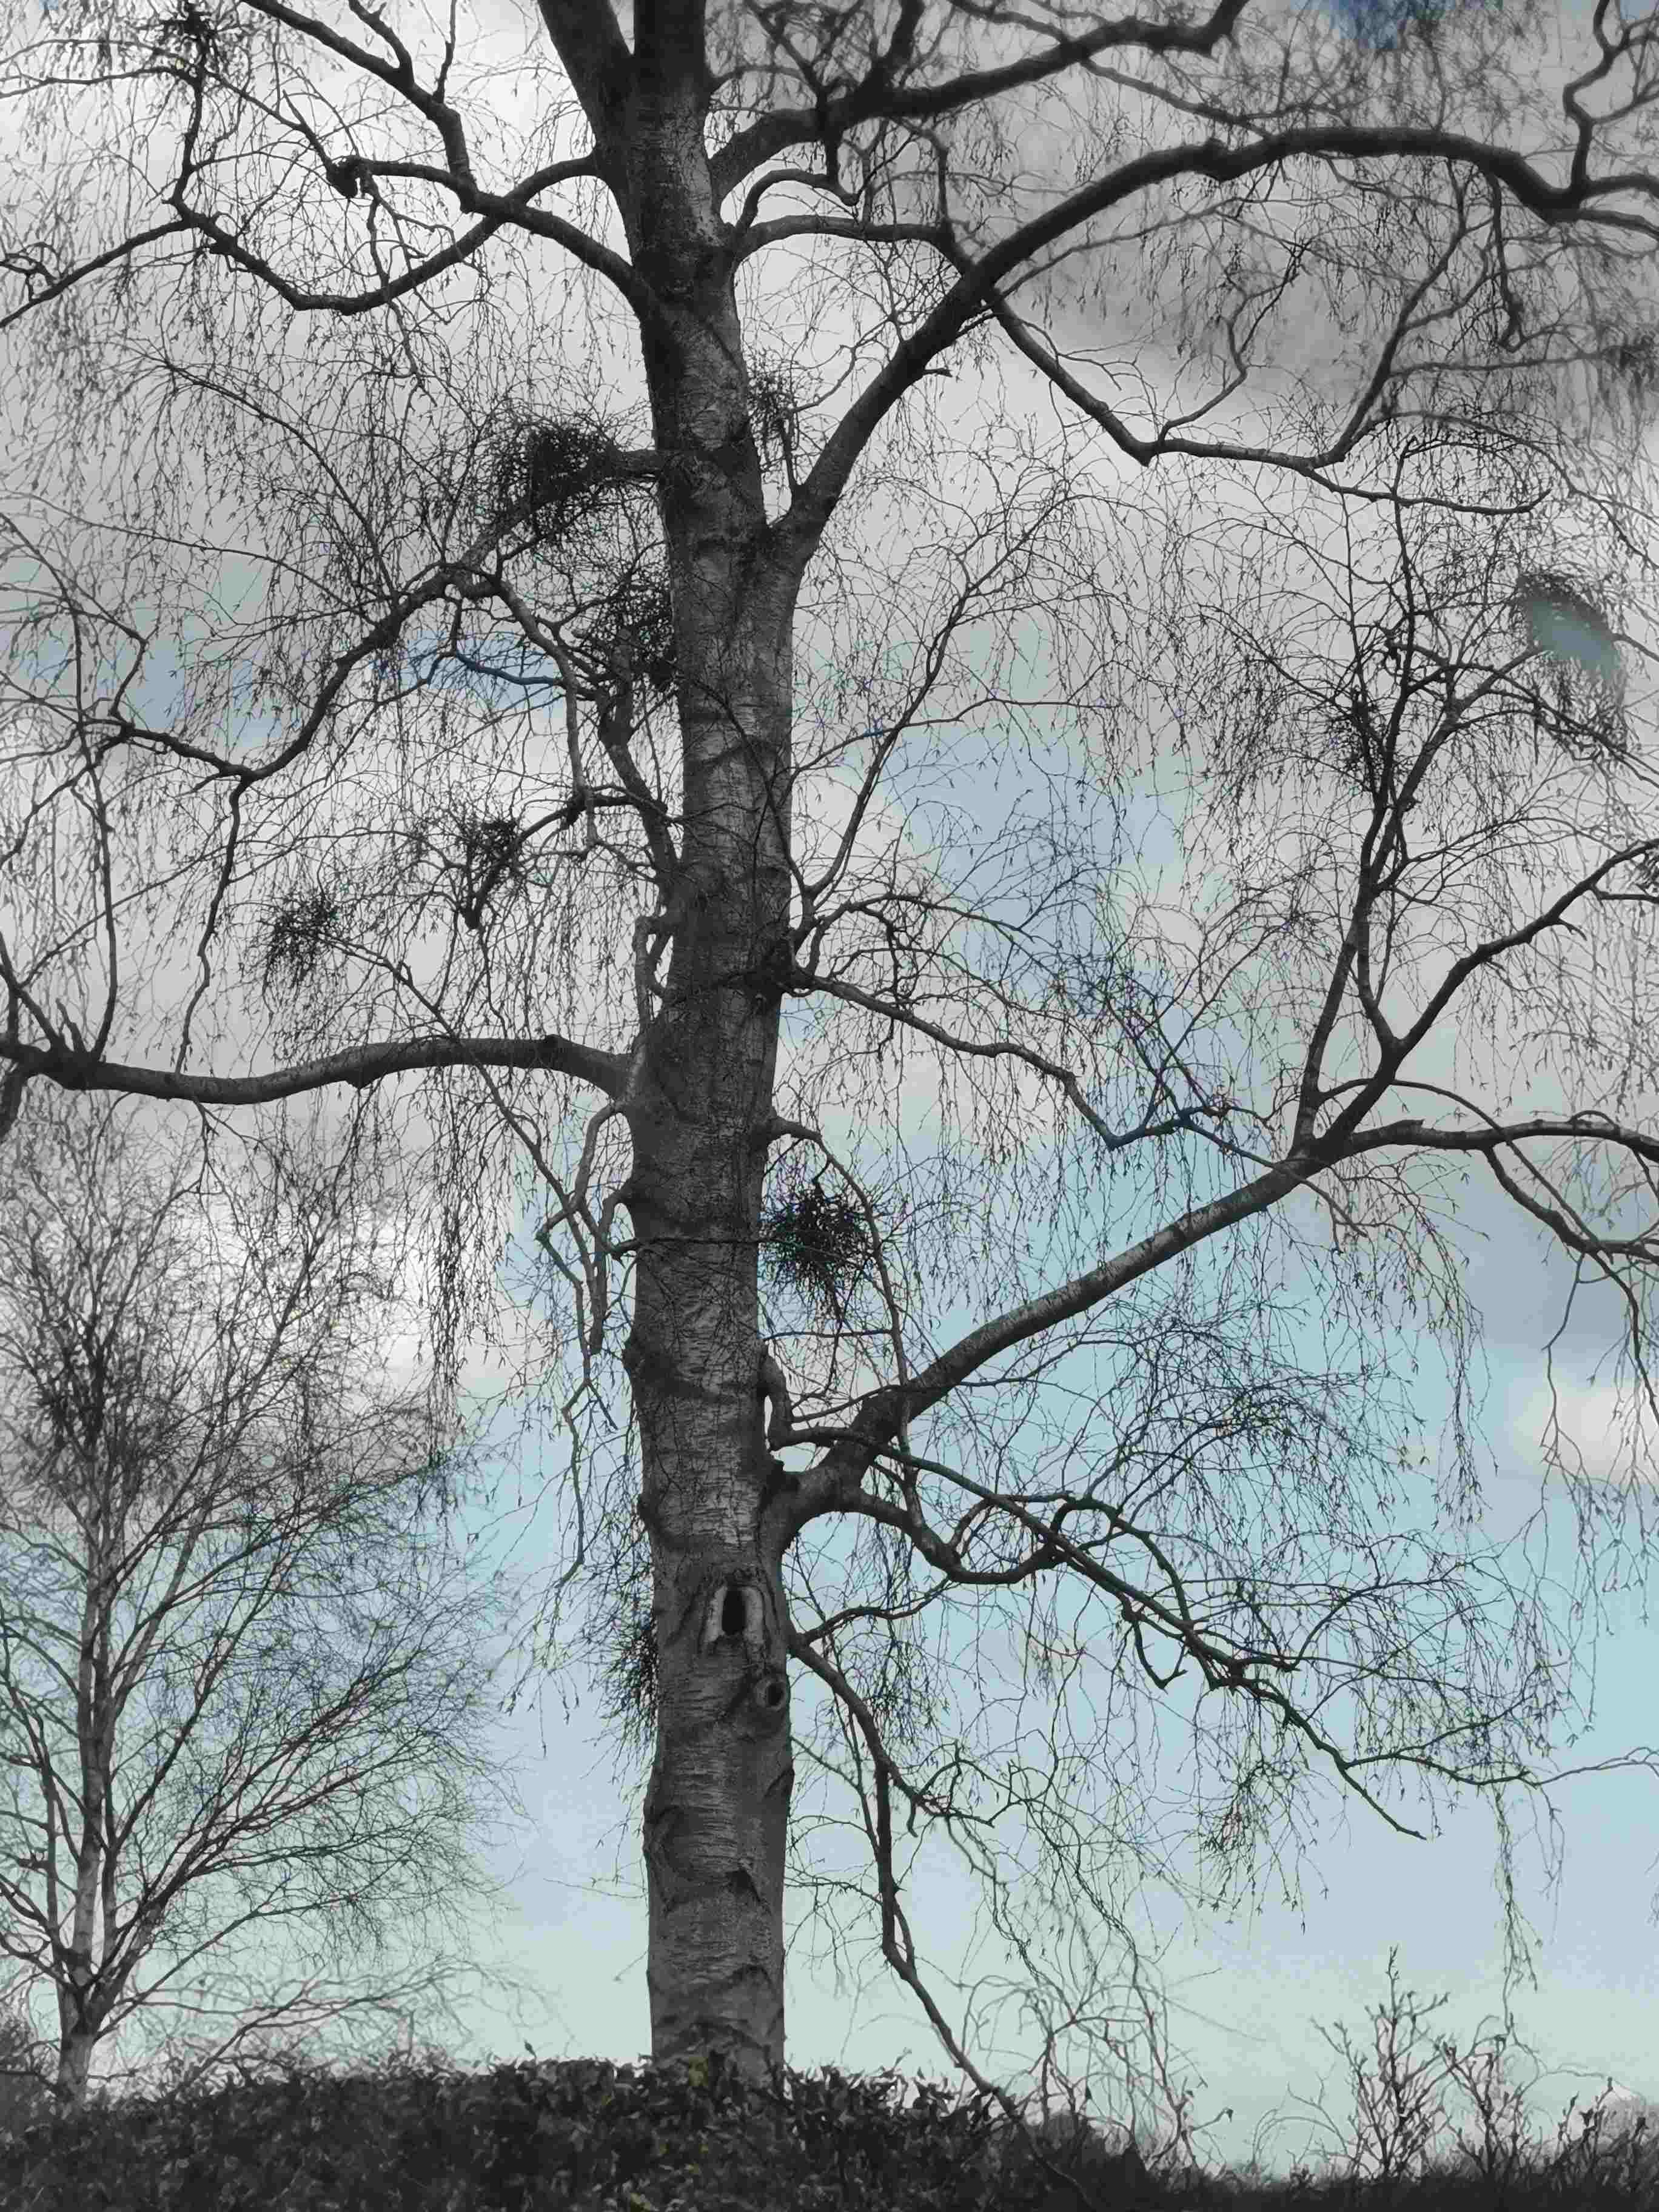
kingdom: Fungi
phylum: Ascomycota
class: Taphrinomycetes
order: Taphrinales
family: Taphrinaceae
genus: Taphrina
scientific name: Taphrina betulina
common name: hekse-sækdug
